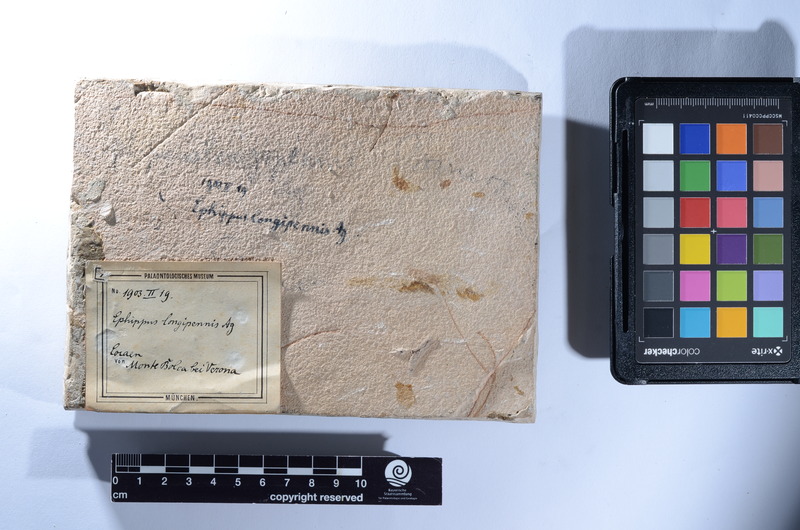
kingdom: Animalia
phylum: Chordata
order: Perciformes
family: Ephippidae
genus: Ephippus
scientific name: Ephippus longipennis
